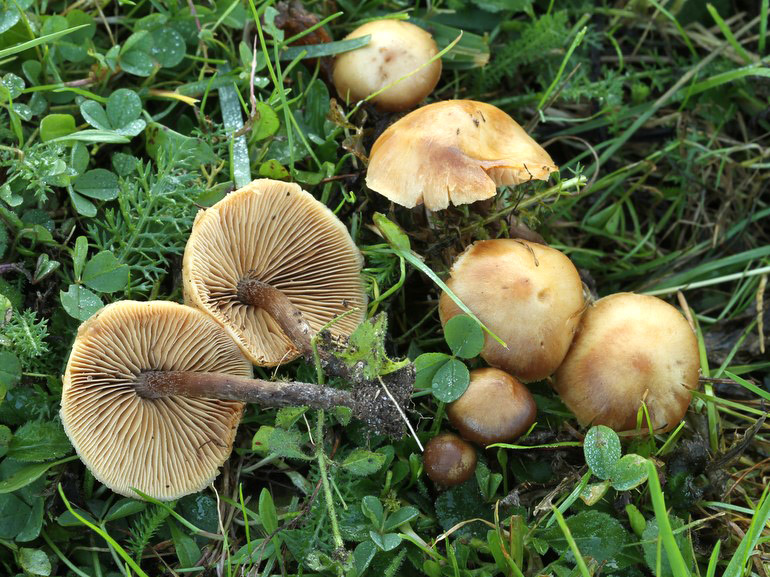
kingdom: Fungi
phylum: Basidiomycota
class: Agaricomycetes
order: Agaricales
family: Hymenogastraceae
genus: Galerina
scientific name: Galerina esteve-raventosii
